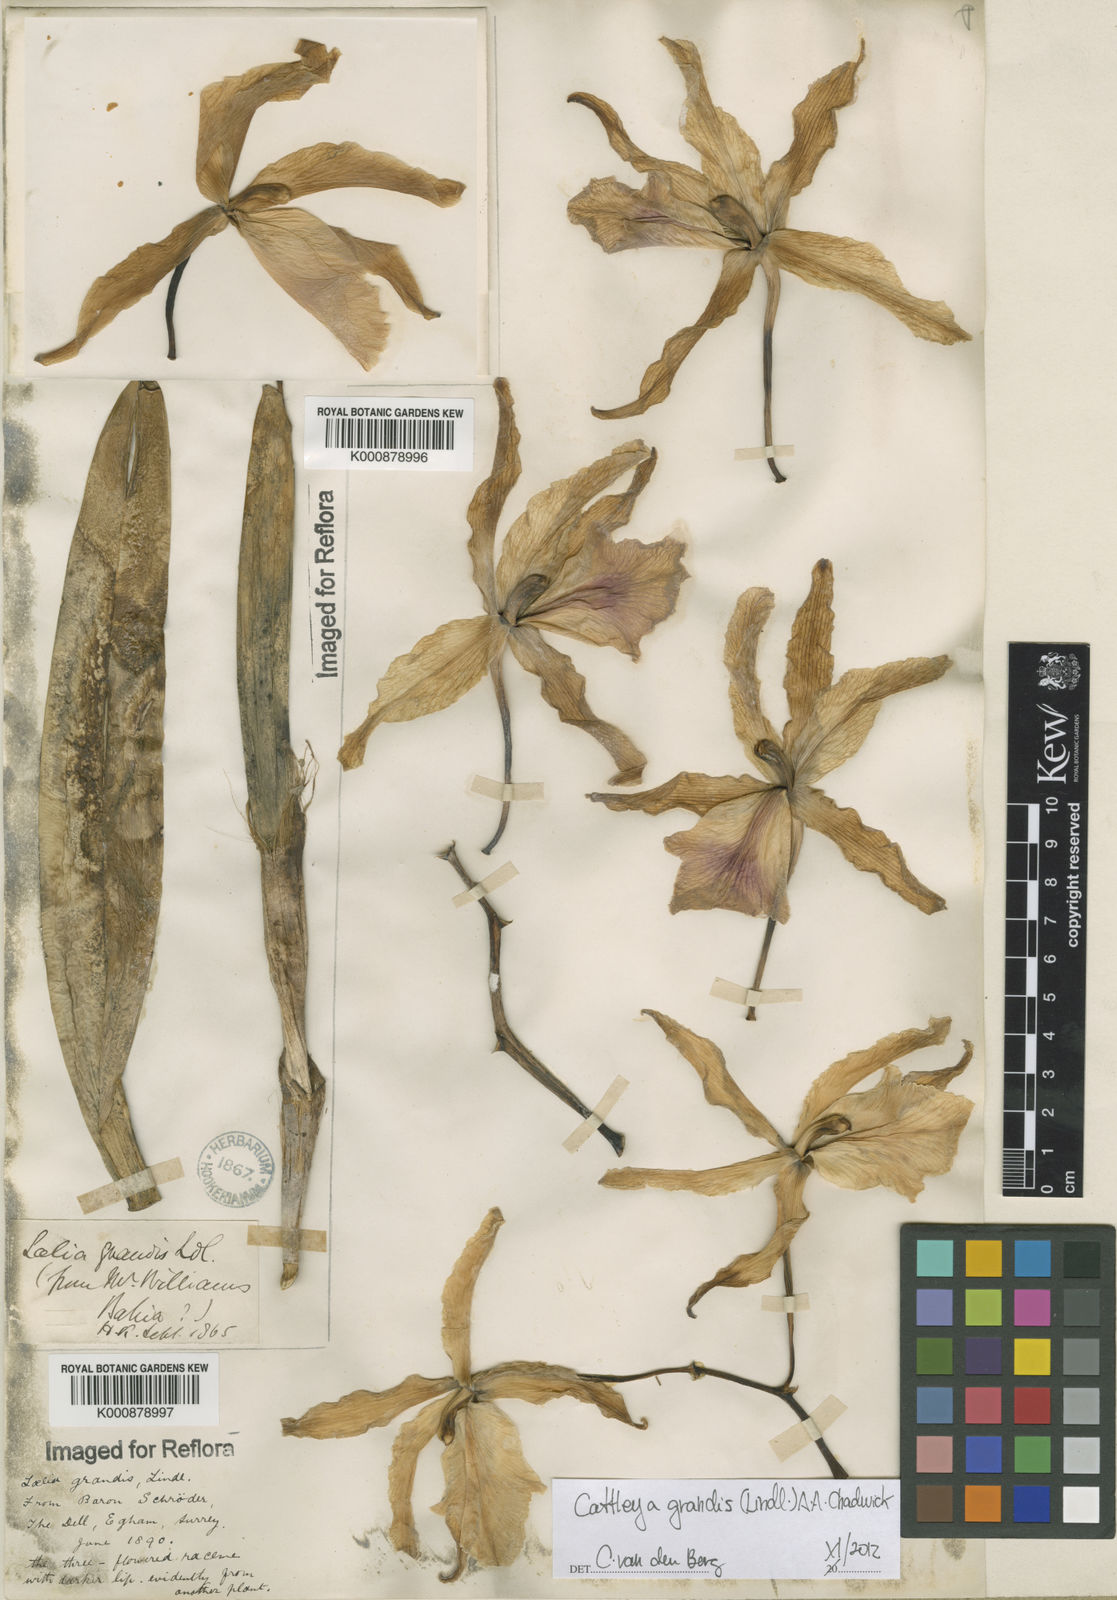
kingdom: Plantae
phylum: Tracheophyta
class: Liliopsida
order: Asparagales
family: Orchidaceae
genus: Cattleya
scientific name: Cattleya grandis
